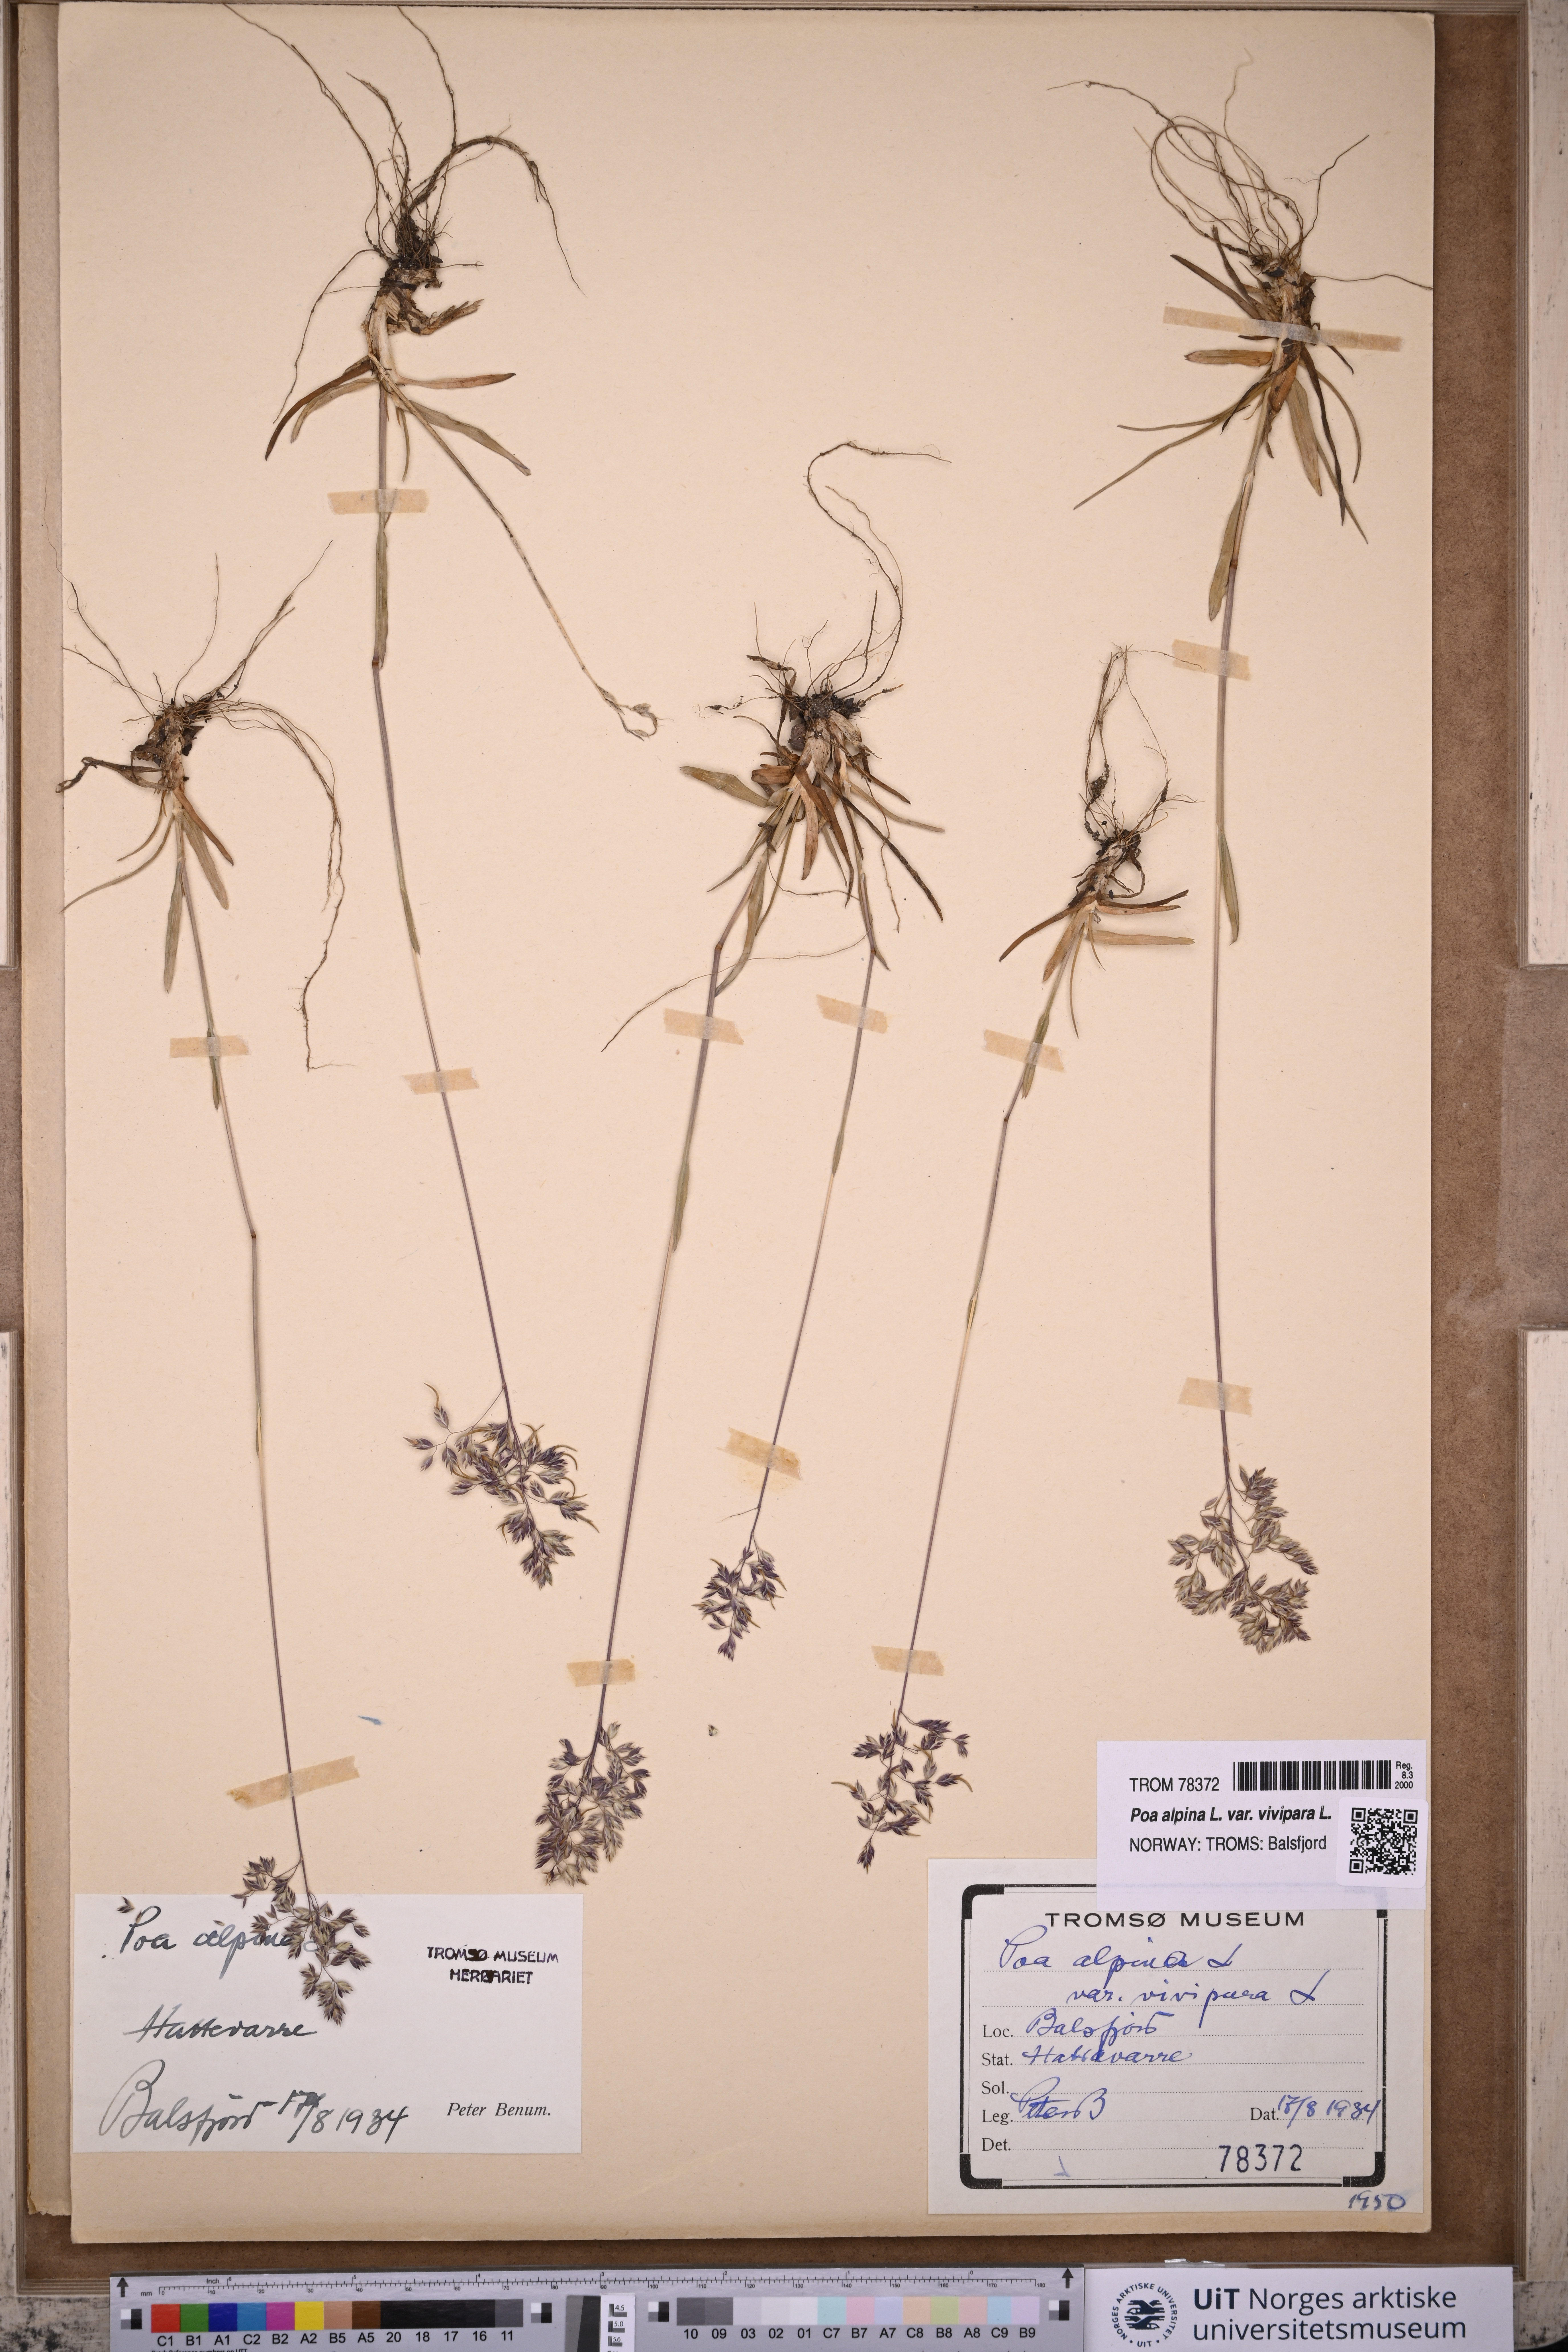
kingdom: Plantae
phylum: Tracheophyta
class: Liliopsida
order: Poales
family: Poaceae
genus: Poa
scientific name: Poa alpina
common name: Alpine bluegrass
